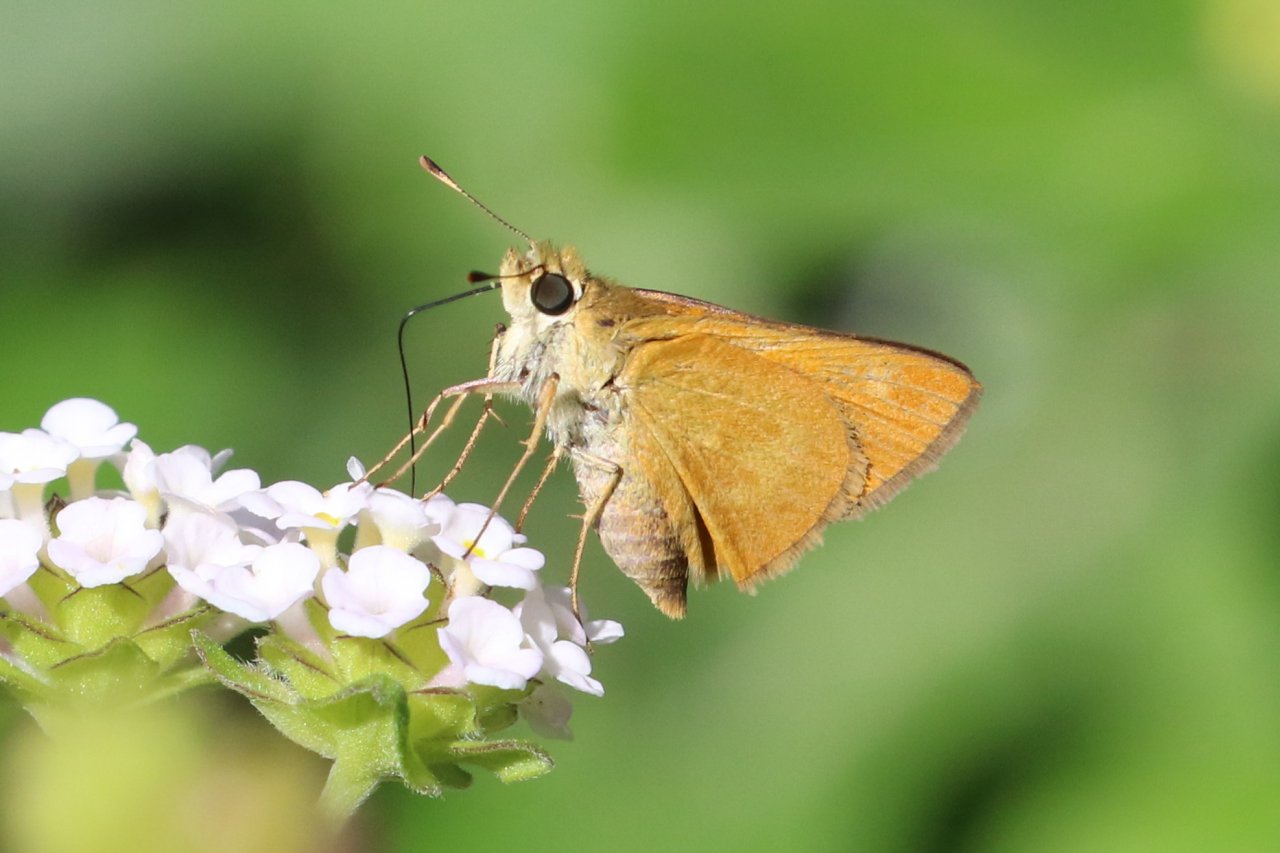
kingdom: Animalia
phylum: Arthropoda
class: Insecta
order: Lepidoptera
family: Hesperiidae
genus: Wallengrenia
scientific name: Wallengrenia otho
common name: Southern Broken-Dash
